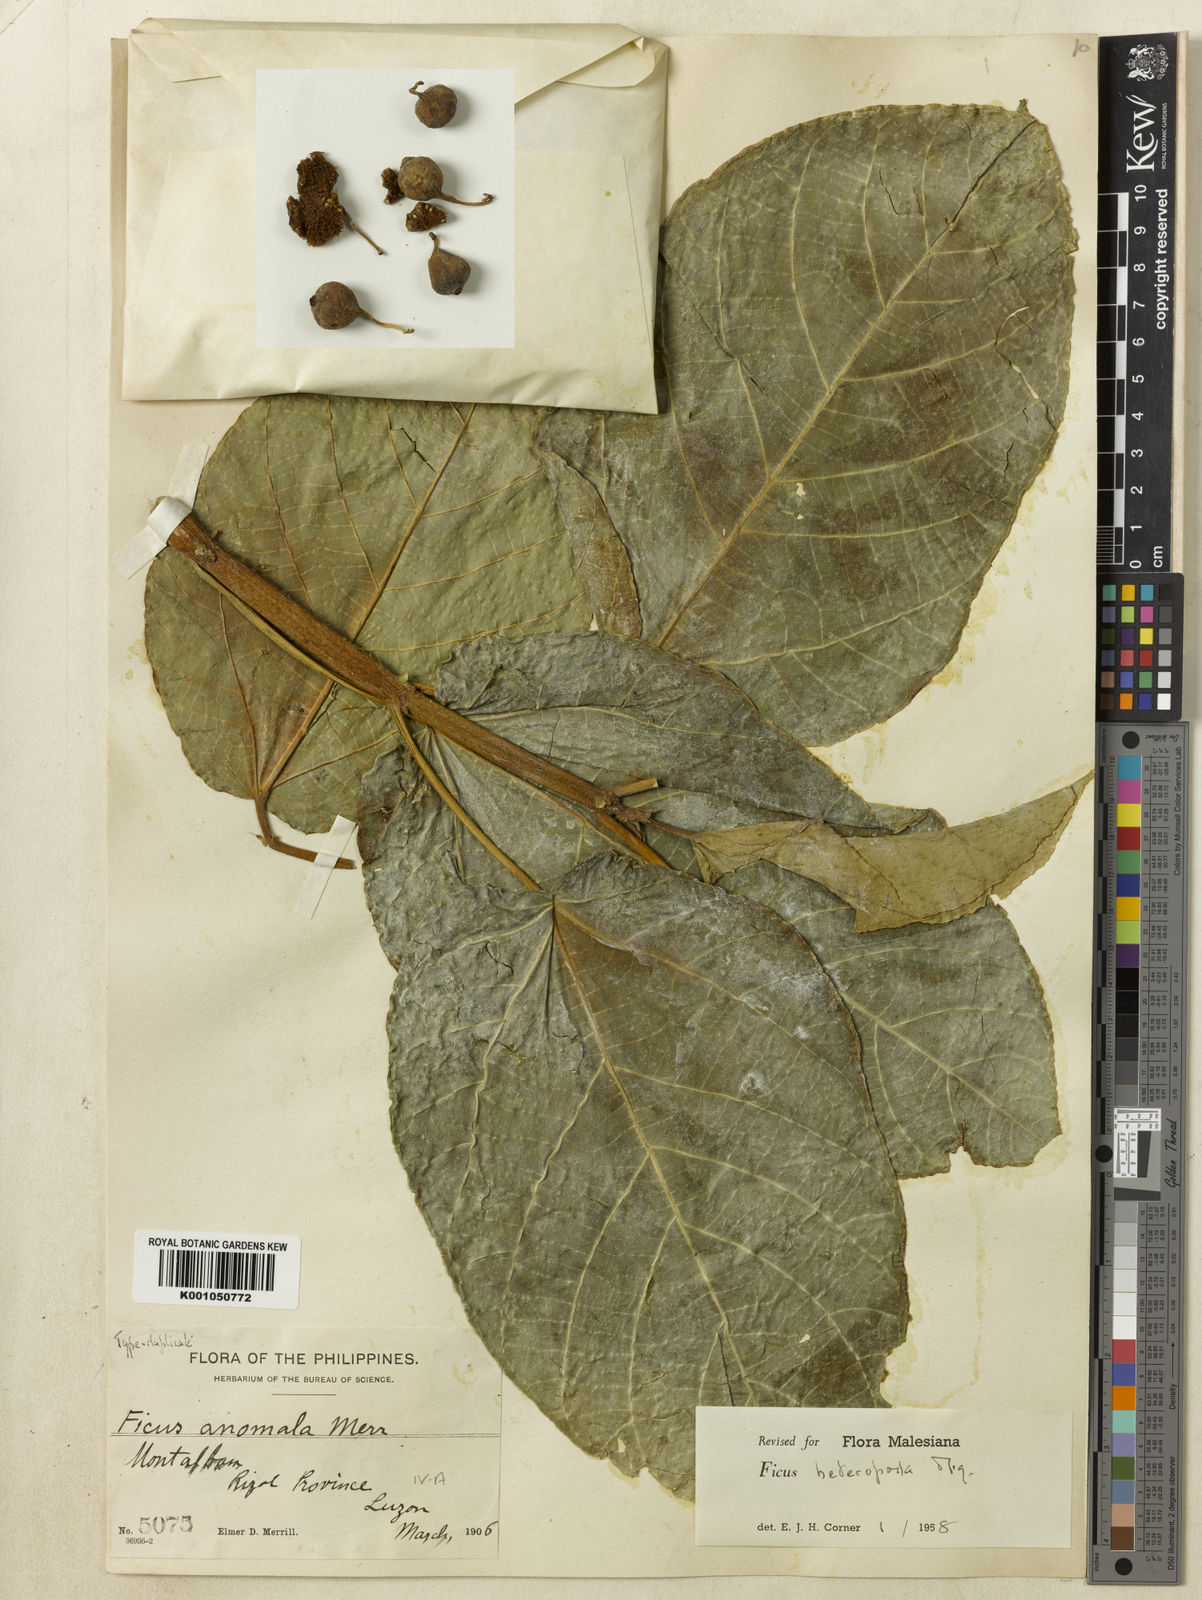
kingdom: Plantae
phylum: Tracheophyta
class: Magnoliopsida
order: Rosales
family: Moraceae
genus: Ficus
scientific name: Ficus heteropoda
